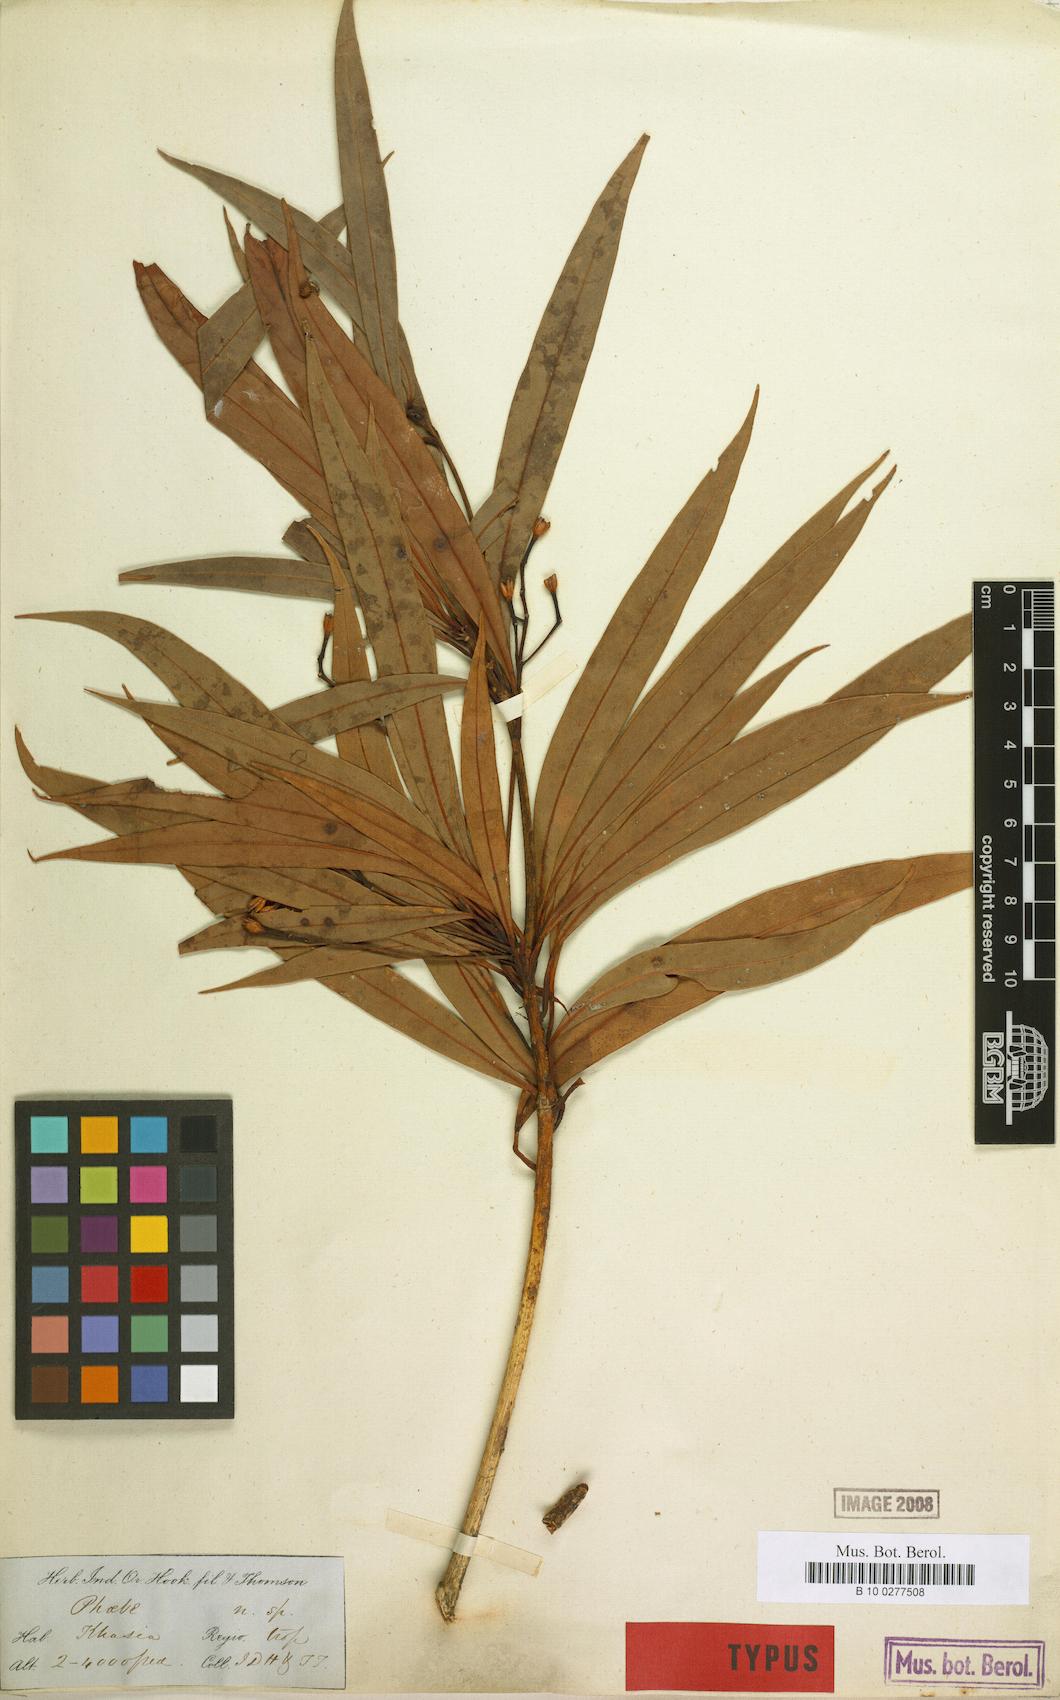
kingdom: Plantae
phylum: Tracheophyta
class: Magnoliopsida
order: Laurales
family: Lauraceae
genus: Phoebe
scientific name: Phoebe angustifolia
